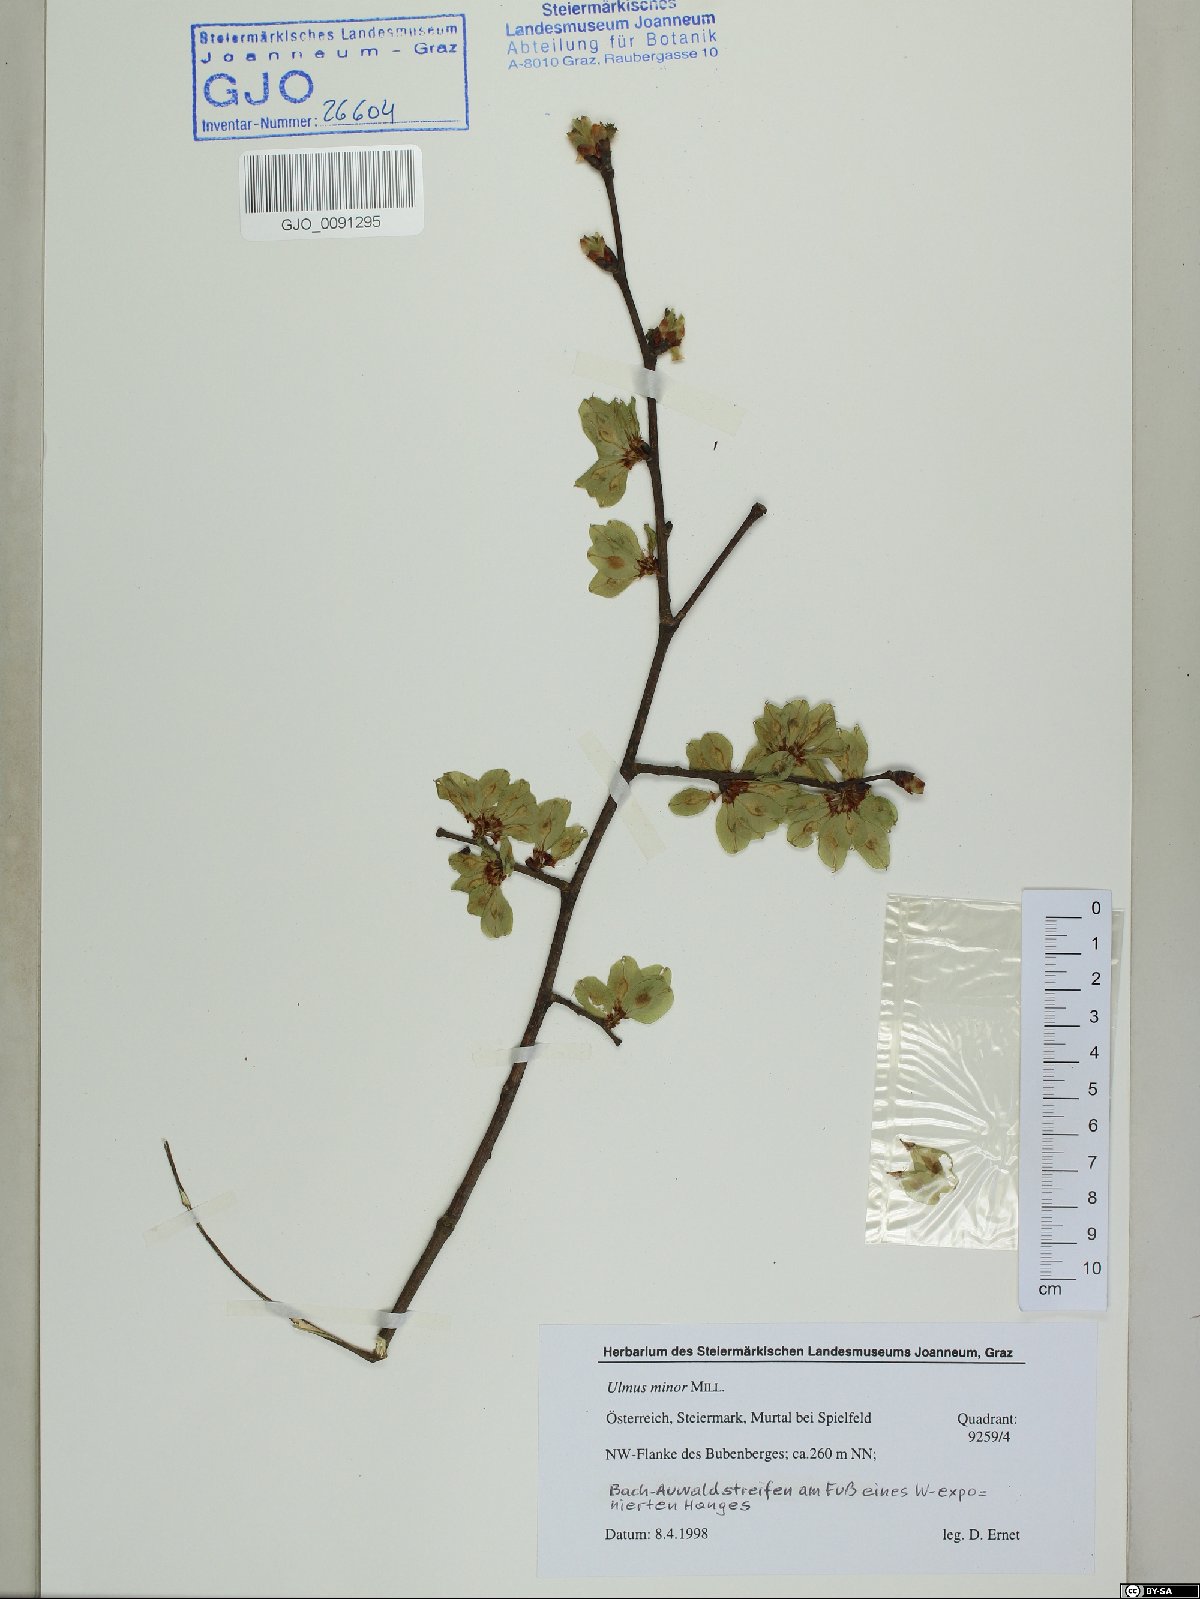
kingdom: Plantae
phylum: Tracheophyta
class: Magnoliopsida
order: Rosales
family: Ulmaceae
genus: Ulmus
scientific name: Ulmus minor
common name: Small-leaved elm
